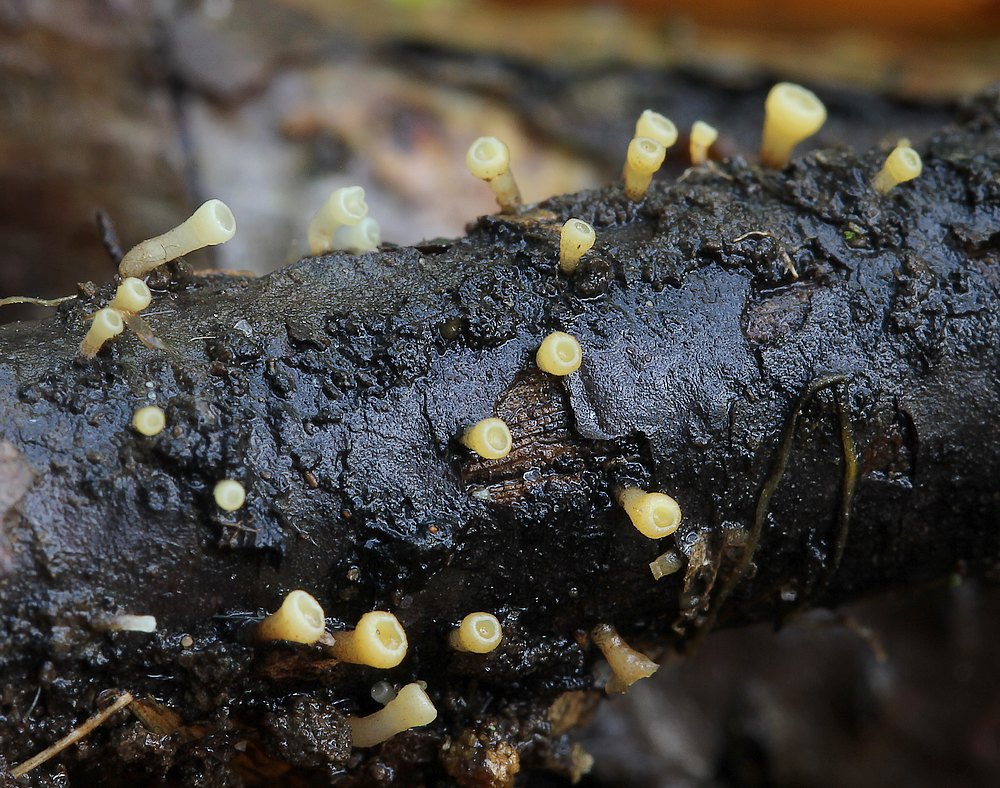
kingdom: Fungi
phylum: Ascomycota
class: Leotiomycetes
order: Helotiales
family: Helotiaceae
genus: Hymenoscyphus
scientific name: Hymenoscyphus
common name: stilkskive
